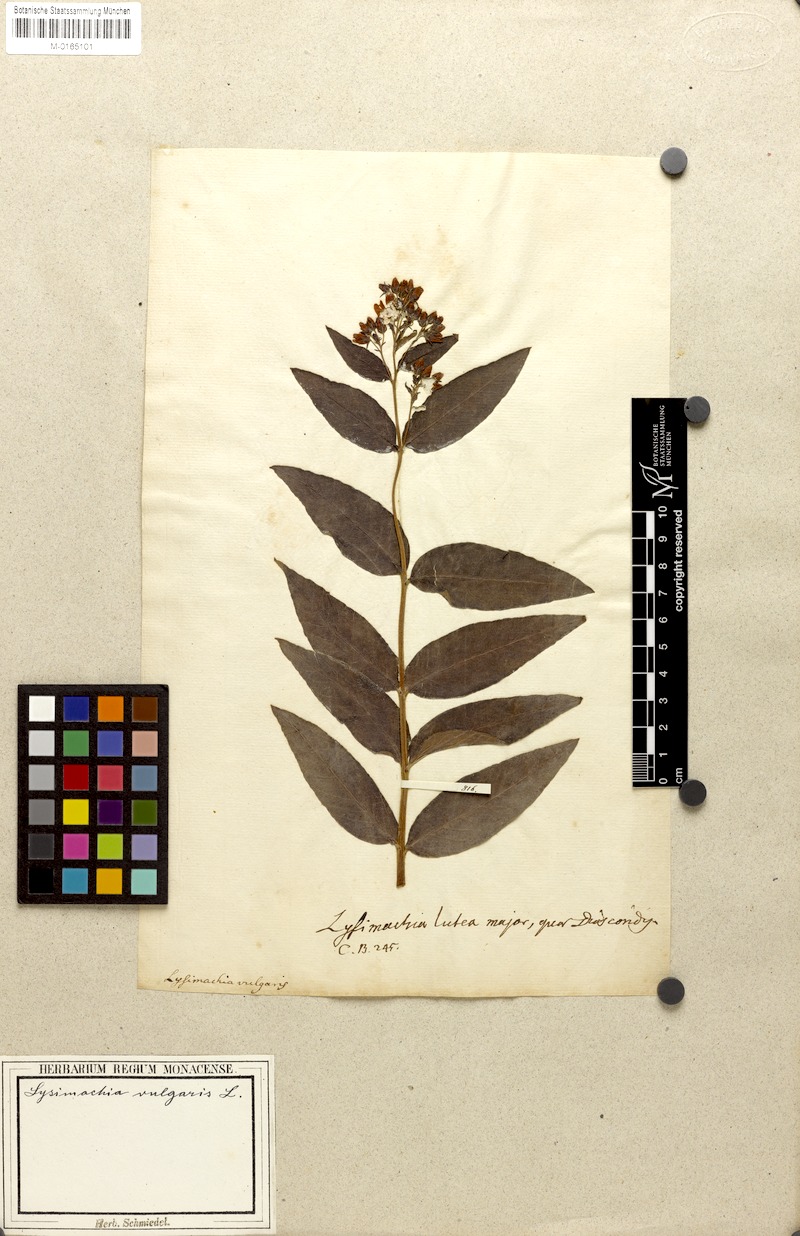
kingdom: Plantae
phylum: Tracheophyta
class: Magnoliopsida
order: Ericales
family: Primulaceae
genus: Lysimachia
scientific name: Lysimachia vulgaris
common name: Yellow loosestrife
